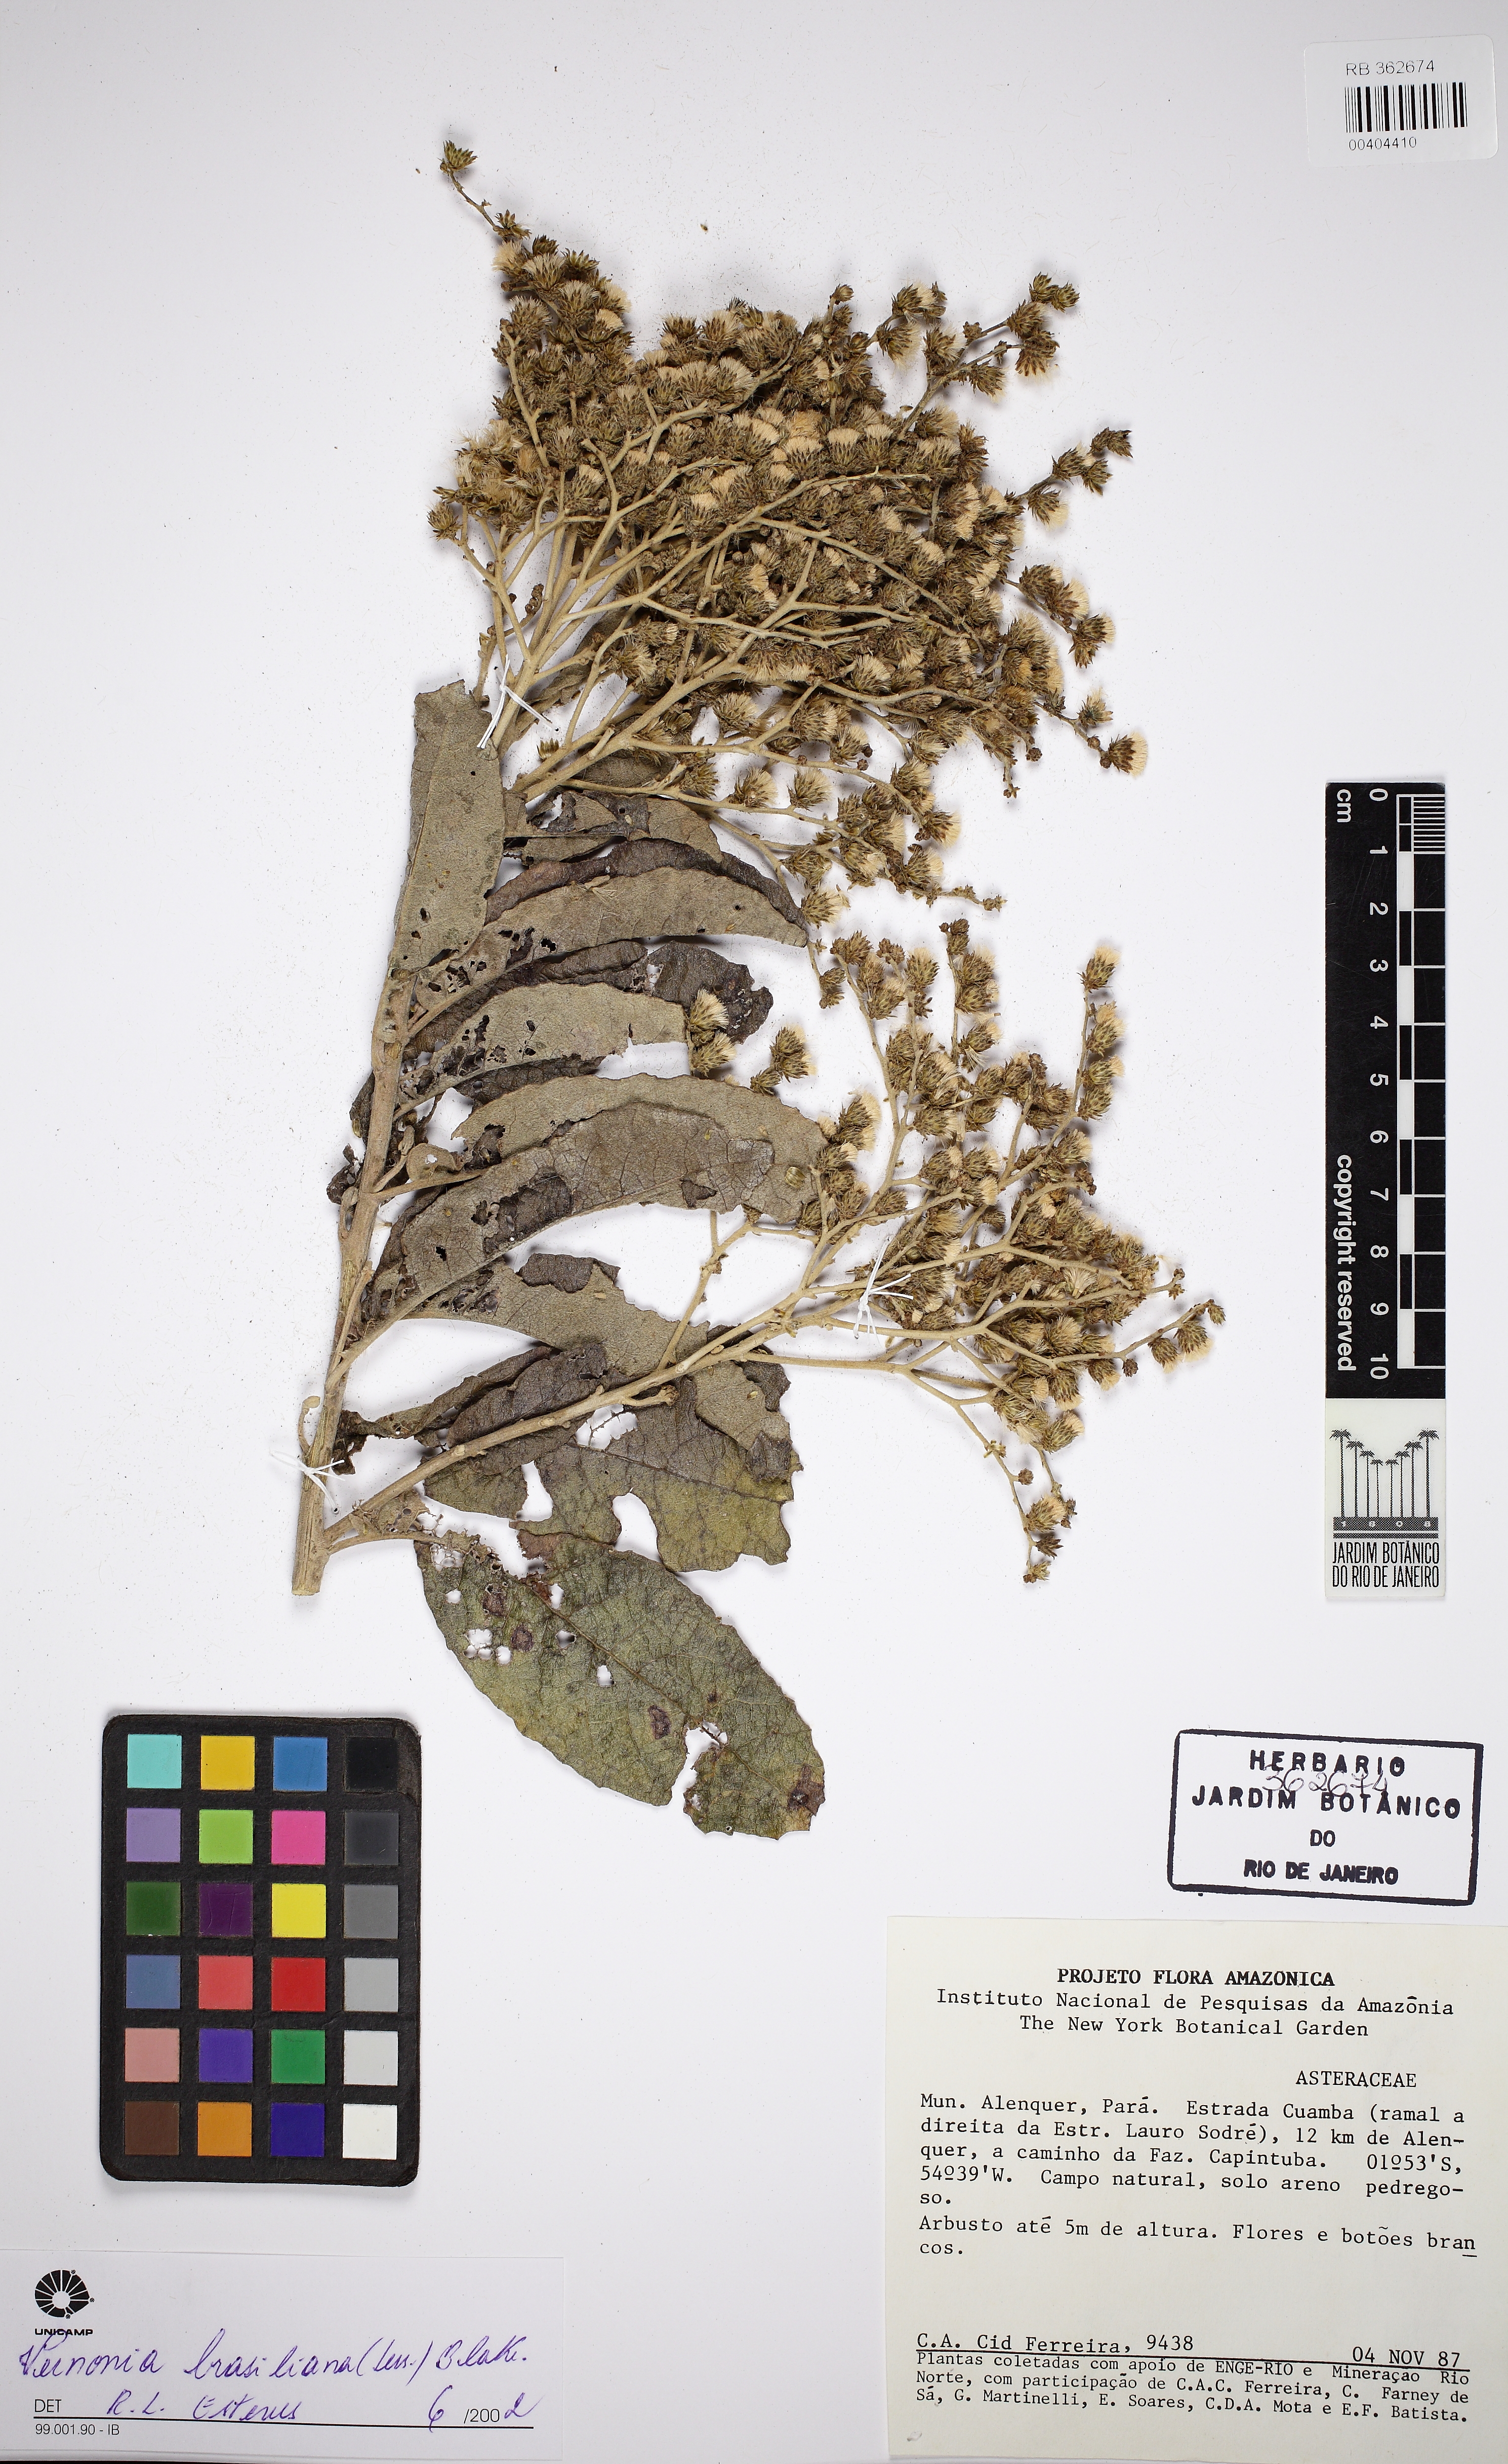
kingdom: Plantae
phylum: Tracheophyta
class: Magnoliopsida
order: Asterales
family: Asteraceae
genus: Vernonanthura
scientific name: Vernonanthura ferruginea
